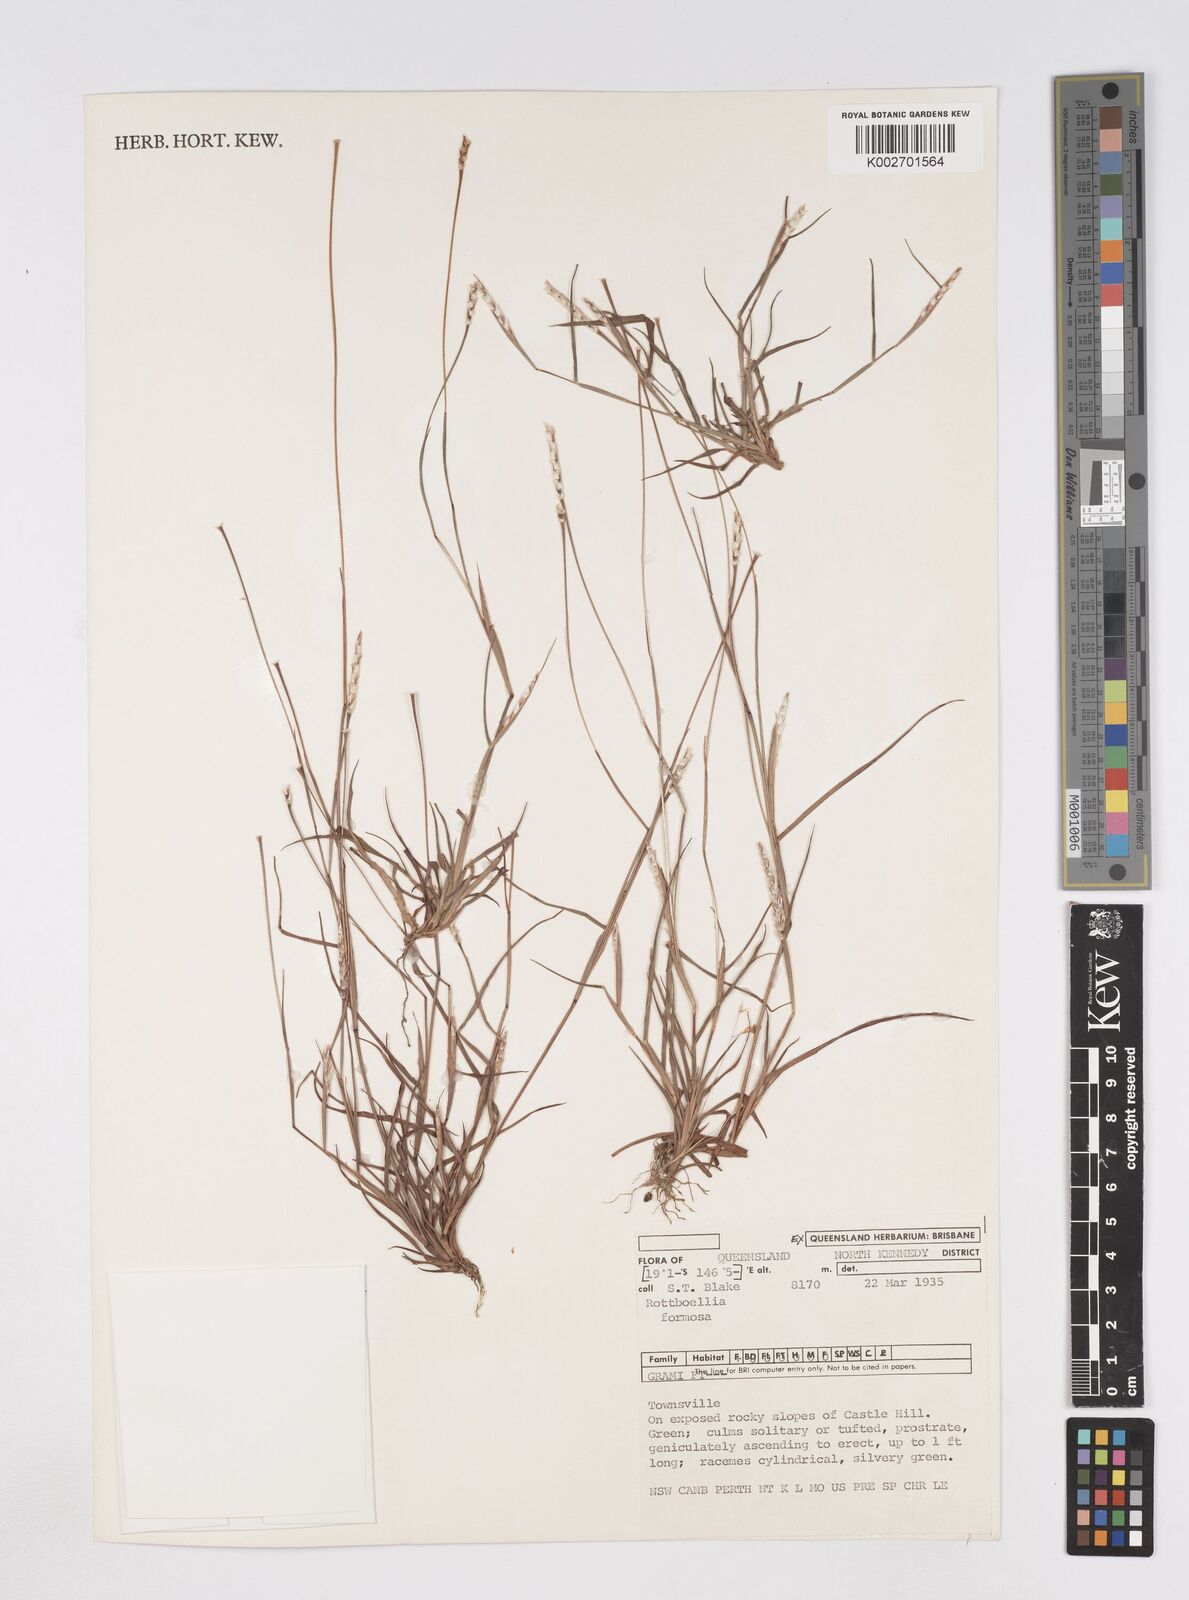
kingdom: Plantae
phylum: Tracheophyta
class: Liliopsida
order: Poales
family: Poaceae
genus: Heteropholis
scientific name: Heteropholis
